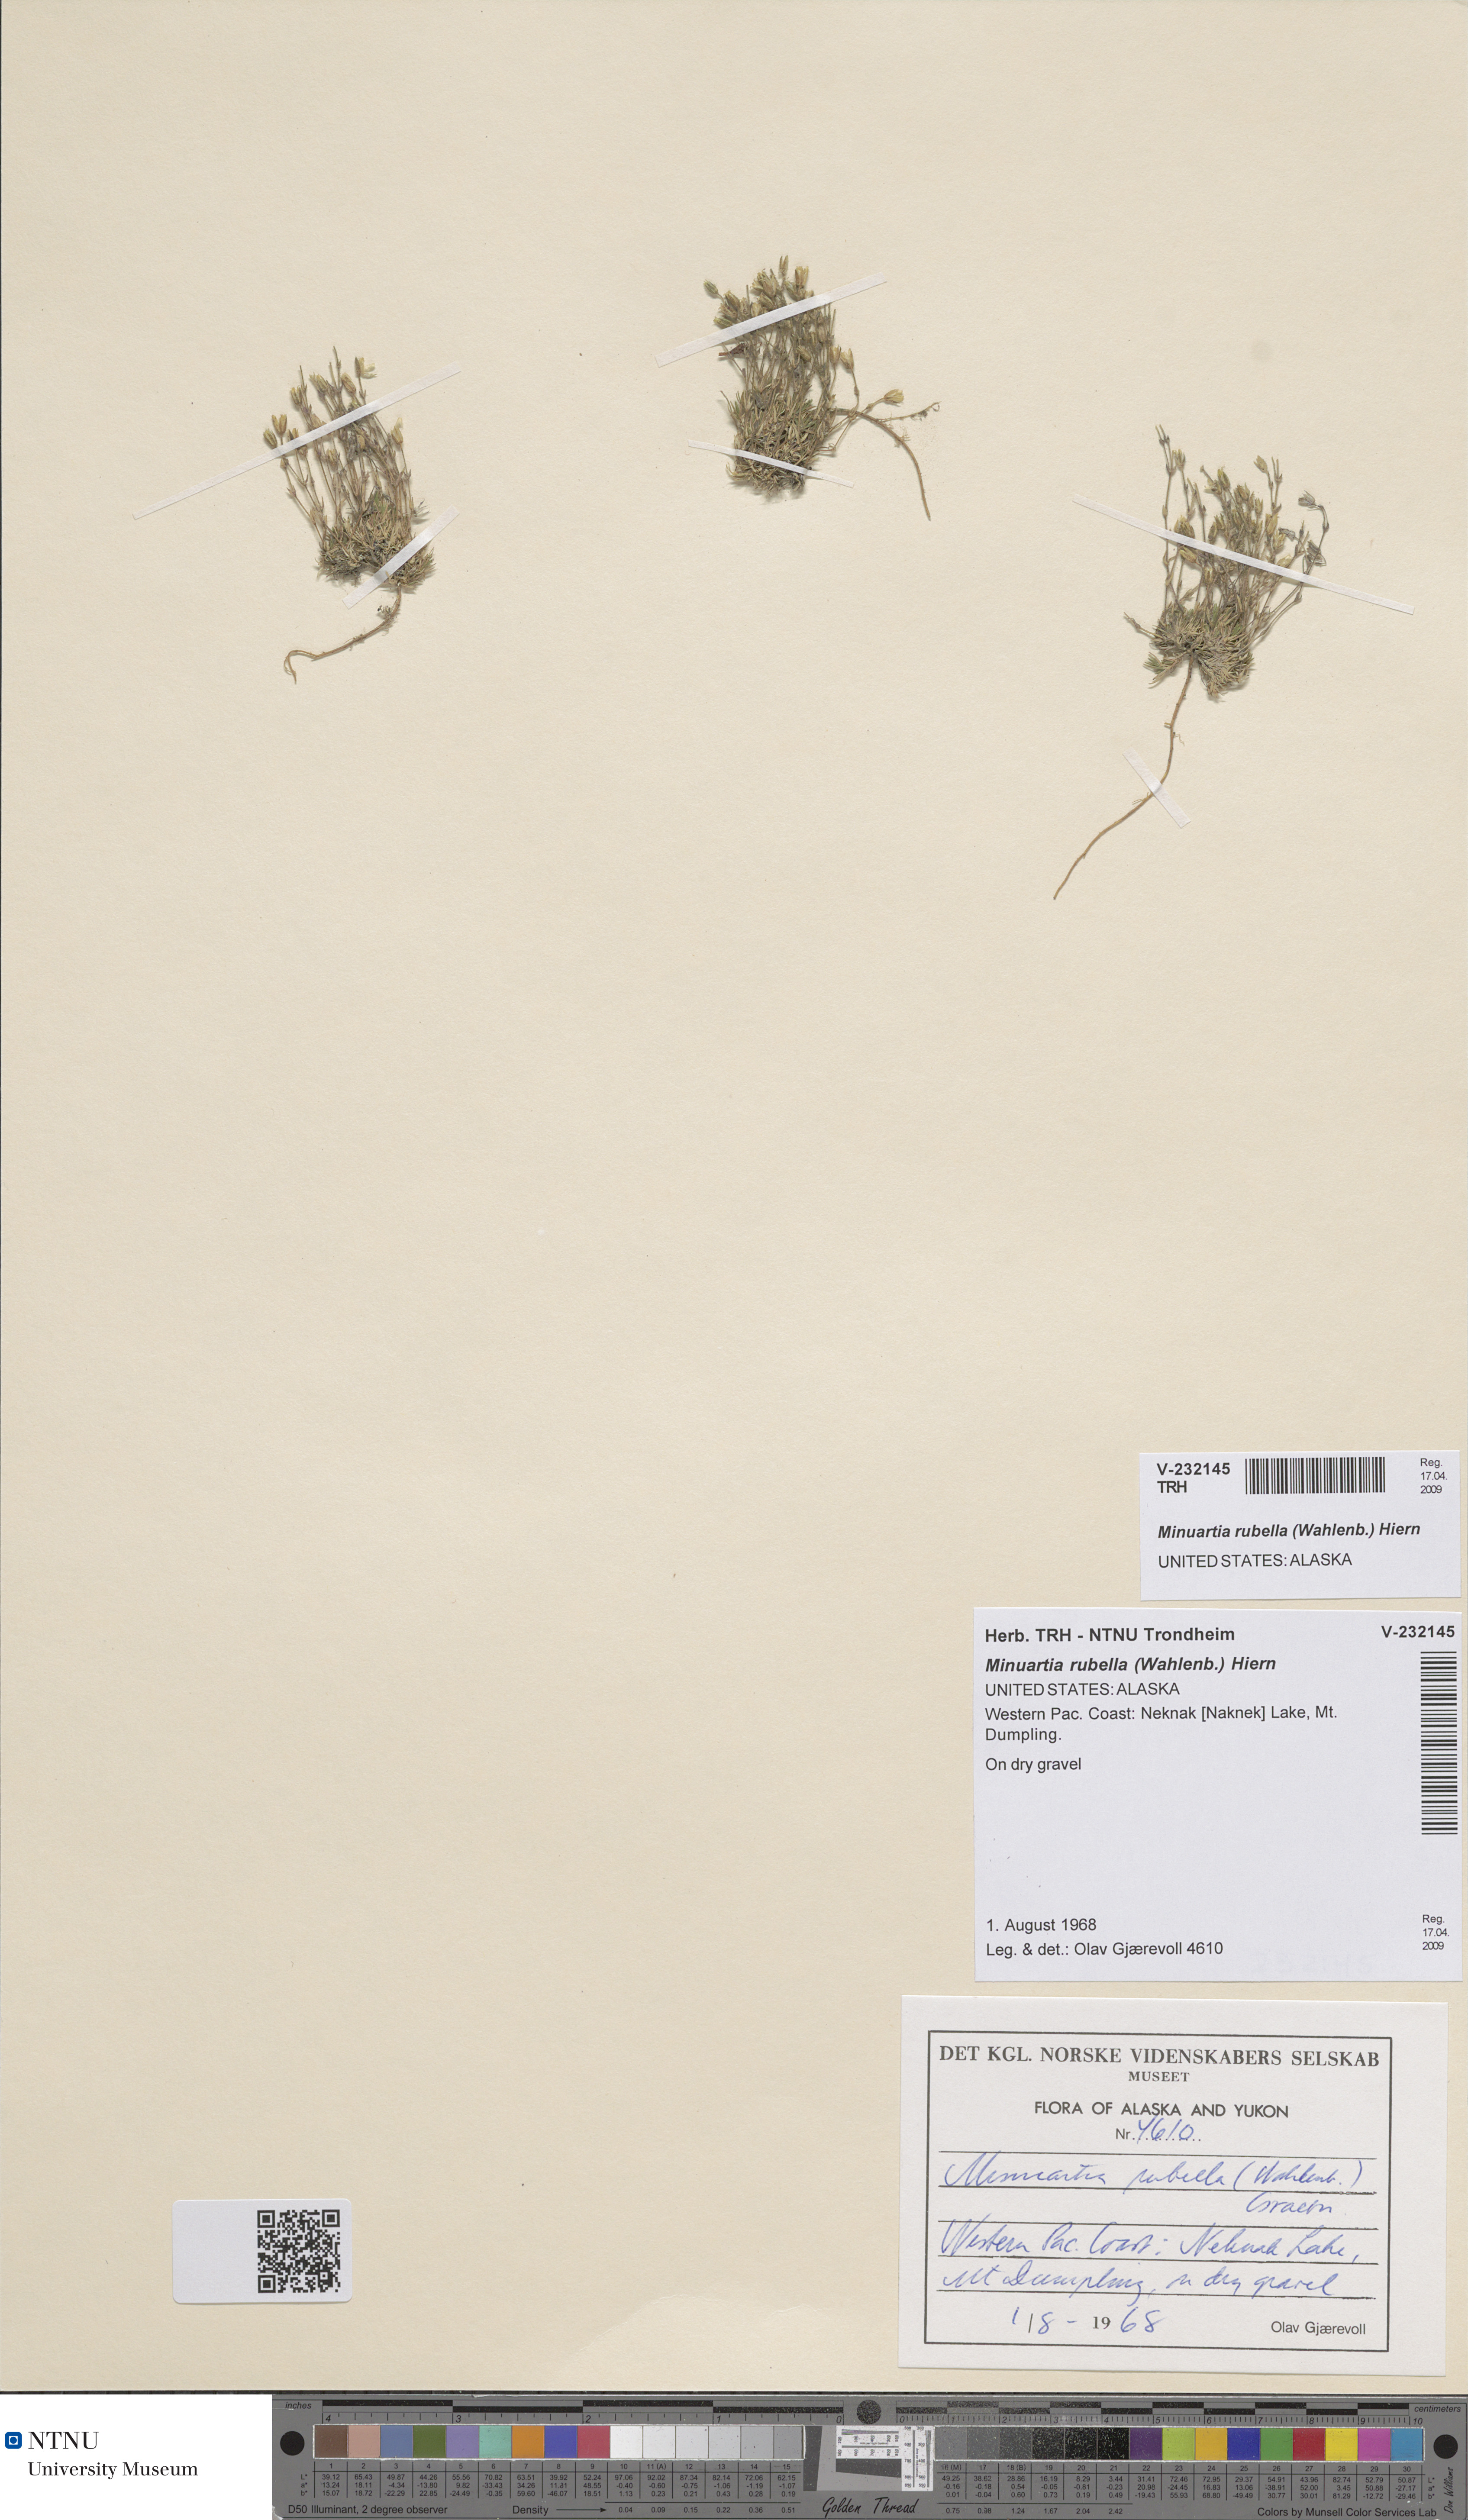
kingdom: Plantae
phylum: Tracheophyta
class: Magnoliopsida
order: Caryophyllales
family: Caryophyllaceae
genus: Sabulina
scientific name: Sabulina rubella
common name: Beautiful sandwort
